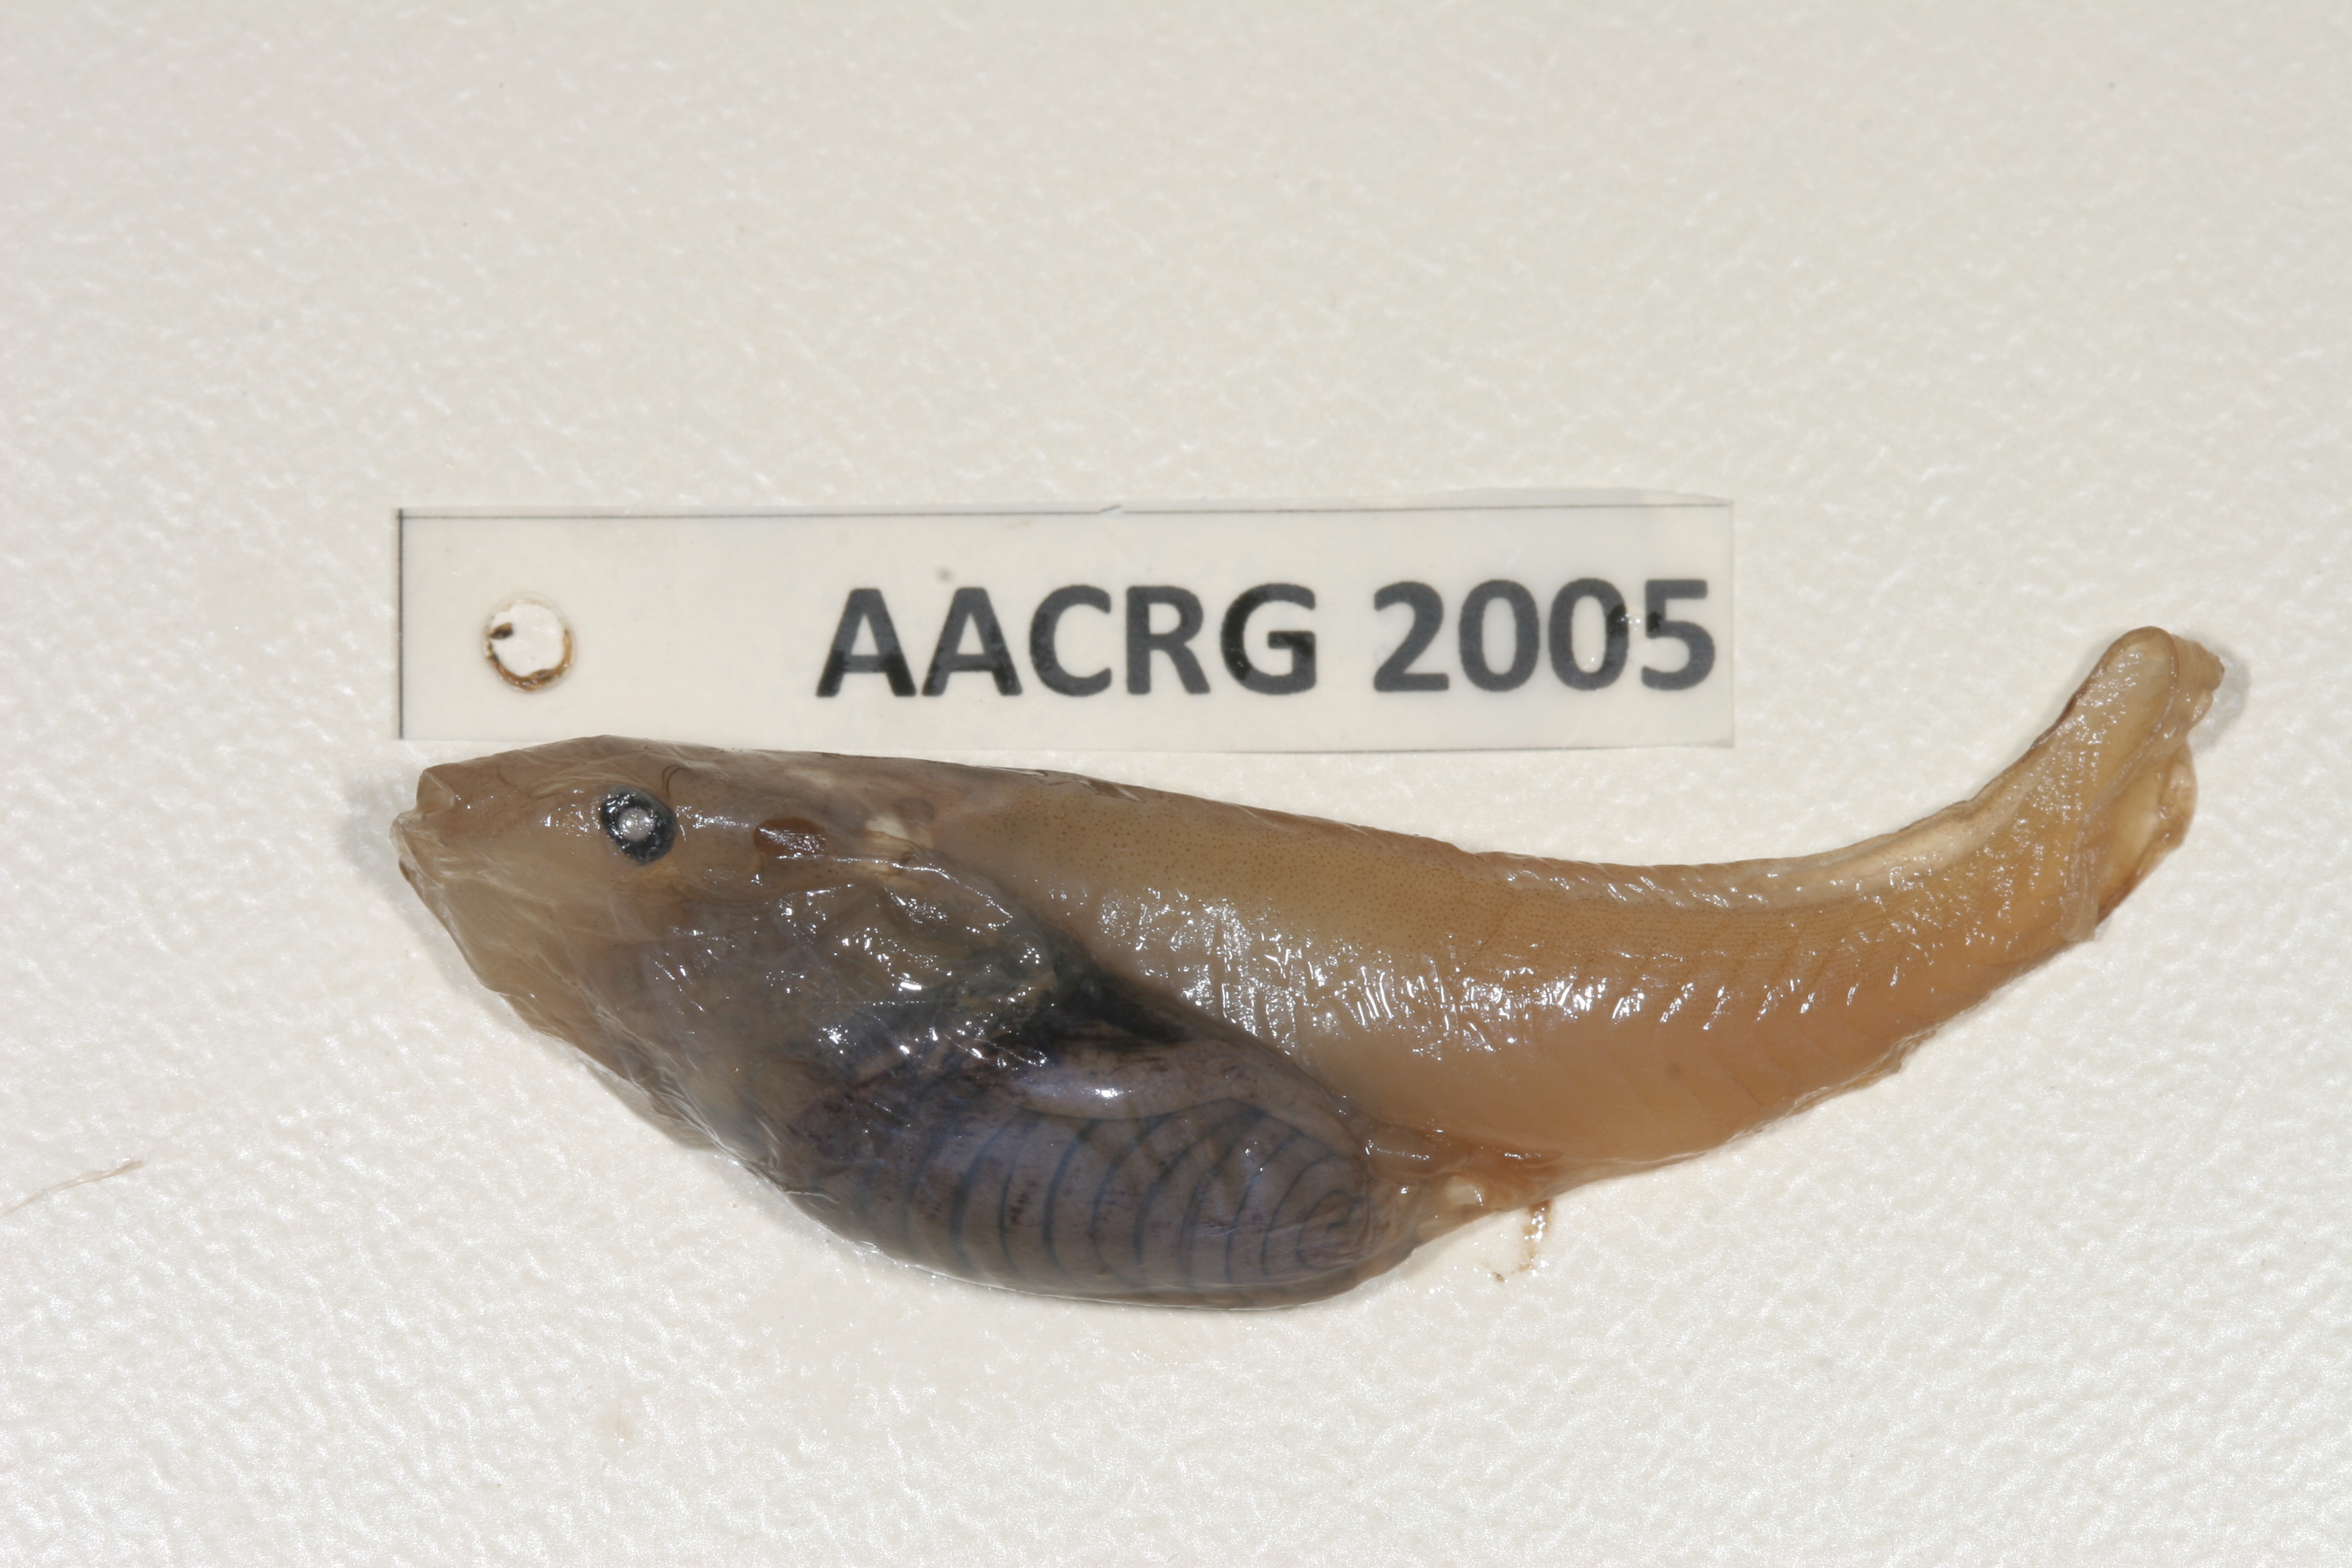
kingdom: Animalia
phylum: Chordata
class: Amphibia
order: Anura
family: Pipidae
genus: Xenopus
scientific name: Xenopus muelleri
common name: Muller's clawed frog
